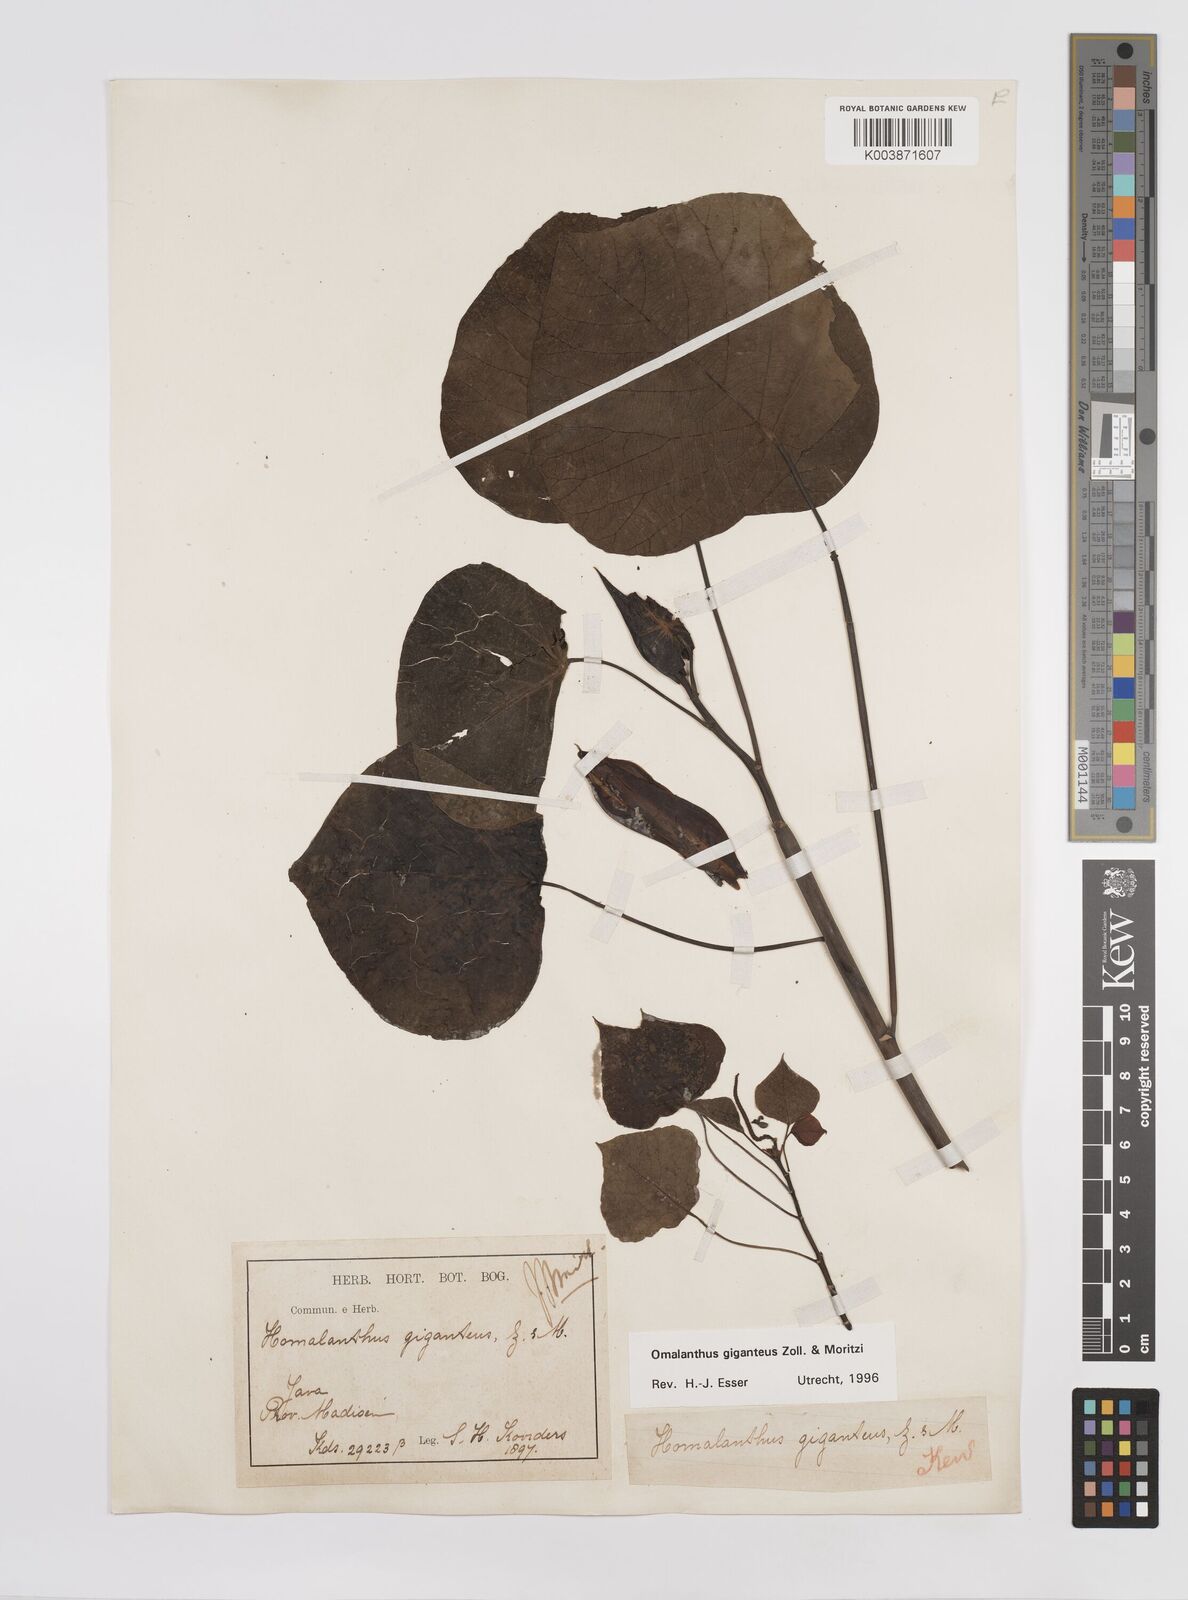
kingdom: Plantae
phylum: Tracheophyta
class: Magnoliopsida
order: Malpighiales
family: Euphorbiaceae
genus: Homalanthus
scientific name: Homalanthus giganteus
